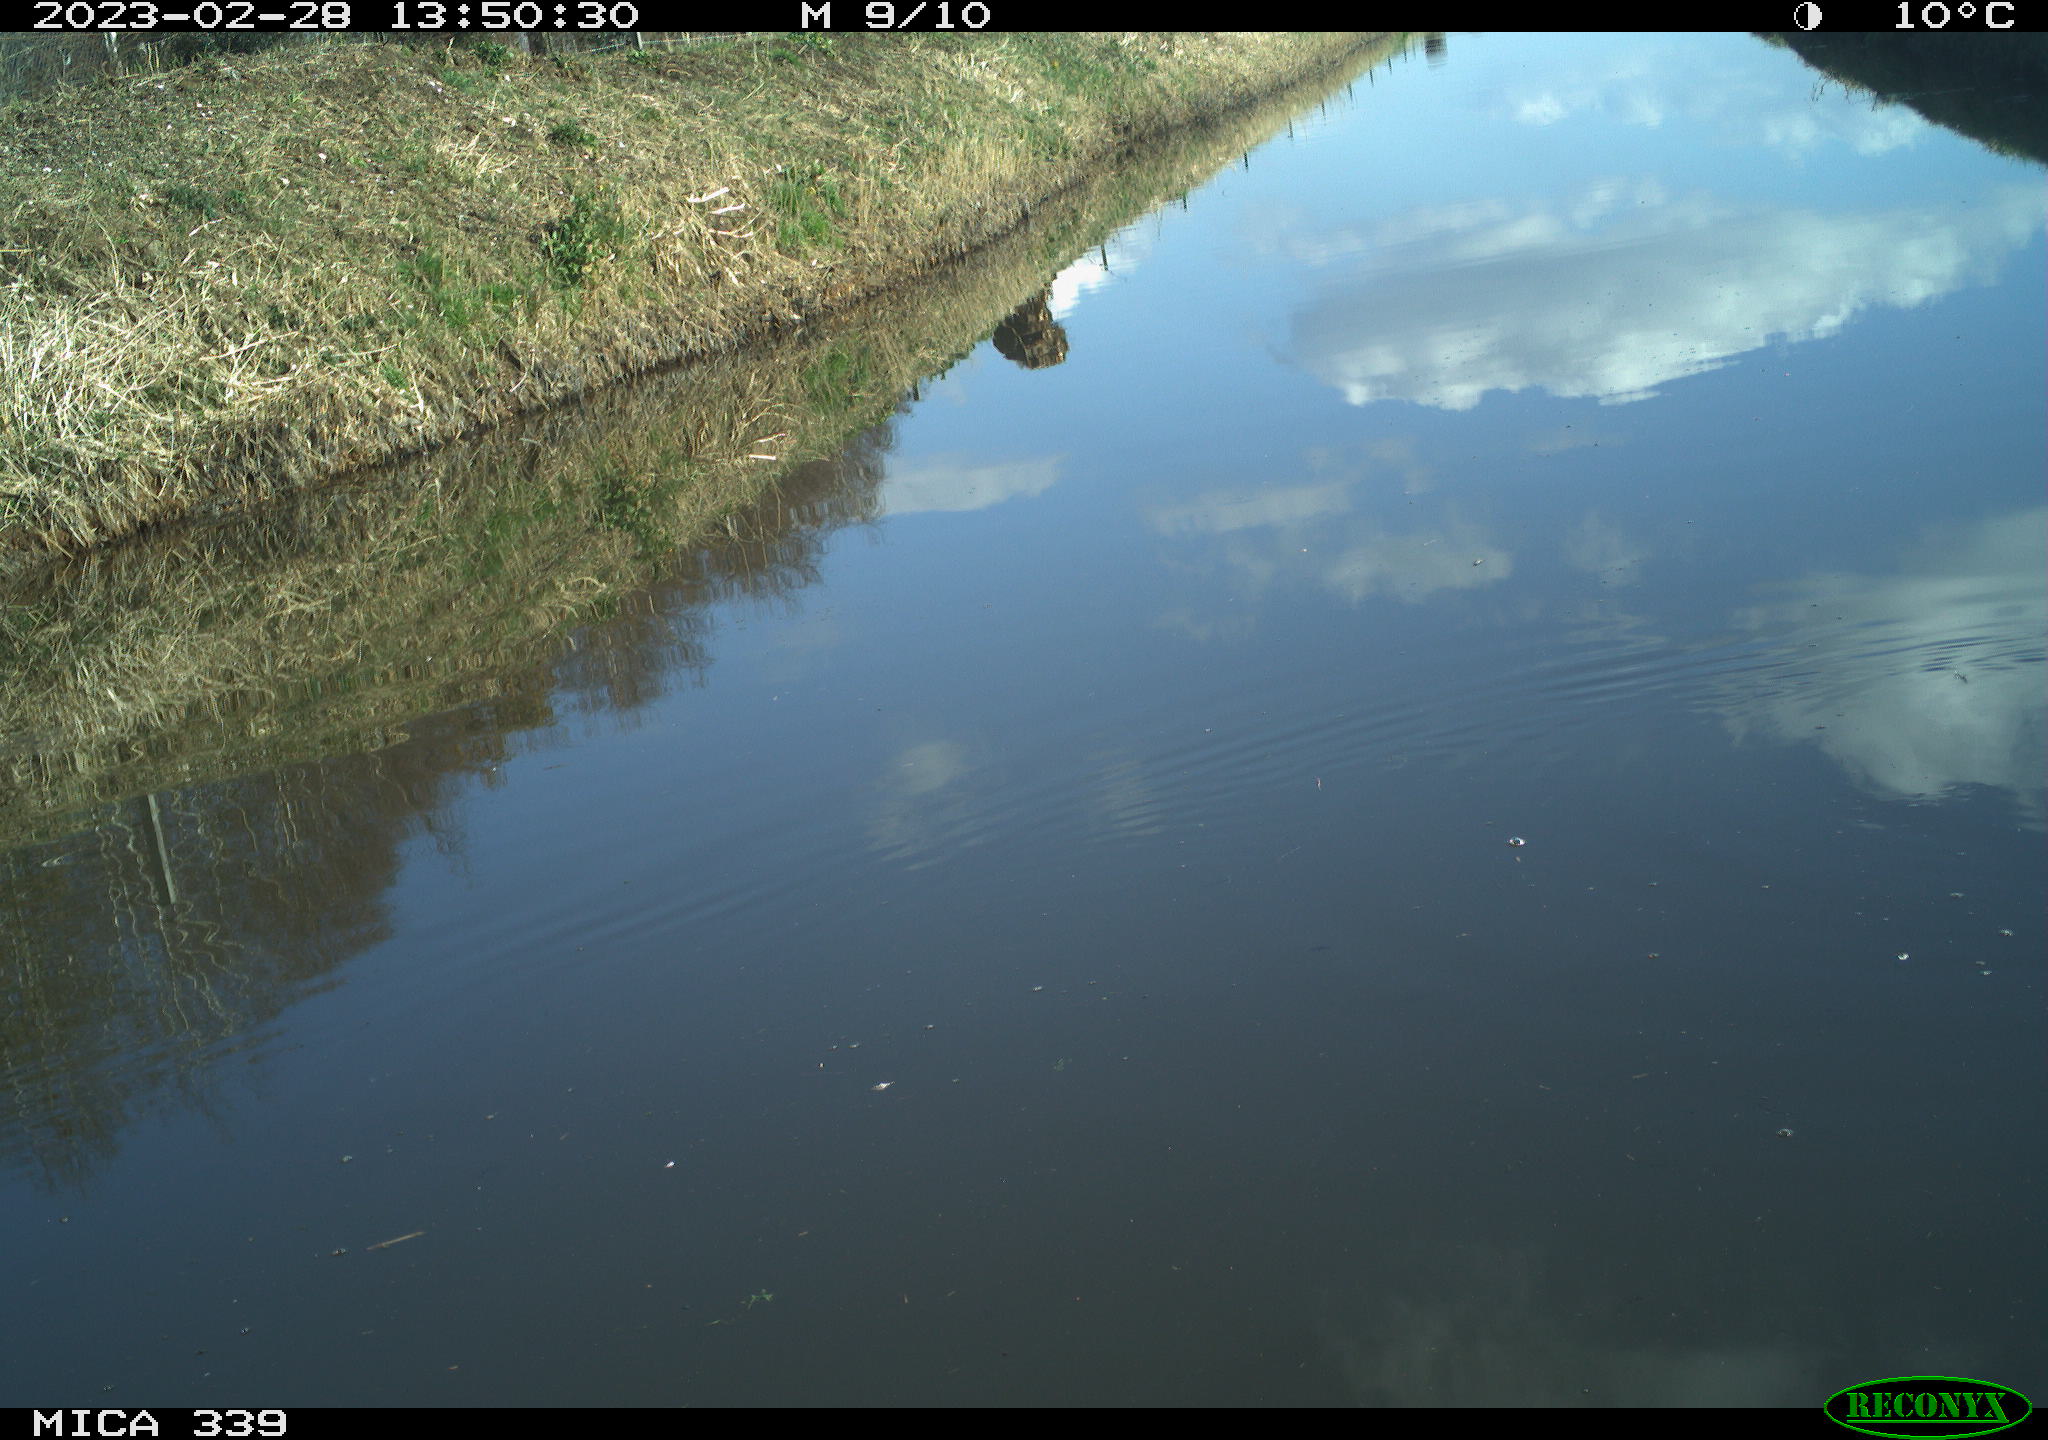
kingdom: Animalia
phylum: Chordata
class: Aves
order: Gruiformes
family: Rallidae
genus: Gallinula
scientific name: Gallinula chloropus
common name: Common moorhen
